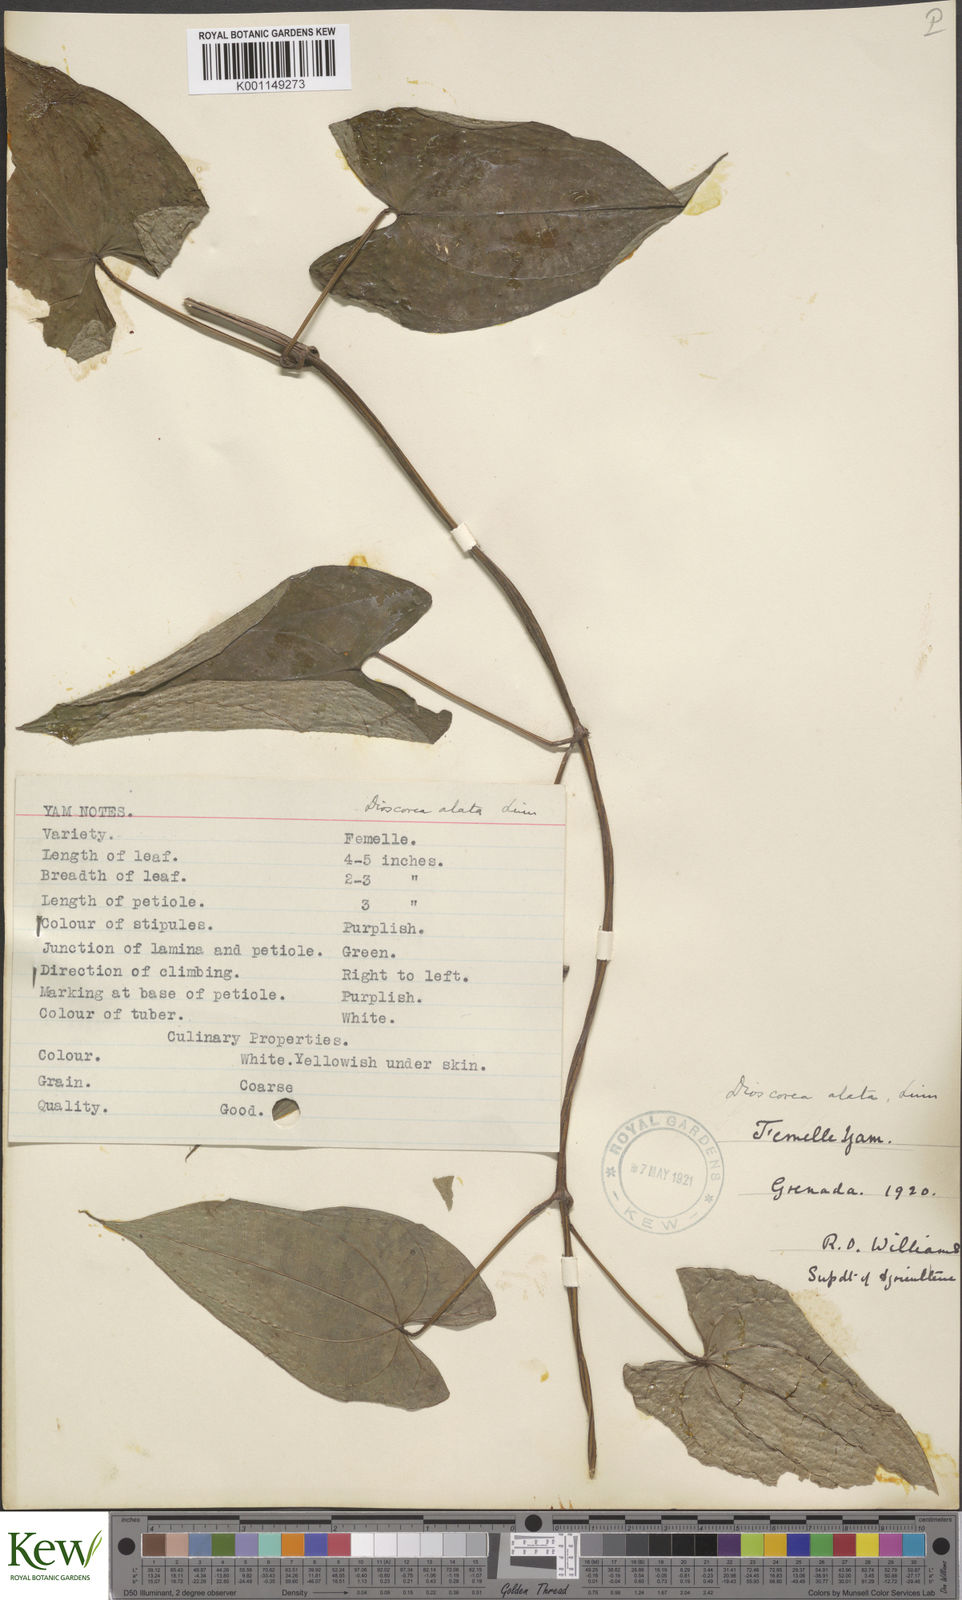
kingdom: Plantae
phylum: Tracheophyta
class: Liliopsida
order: Dioscoreales
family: Dioscoreaceae
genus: Dioscorea
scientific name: Dioscorea alata
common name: Water yam
